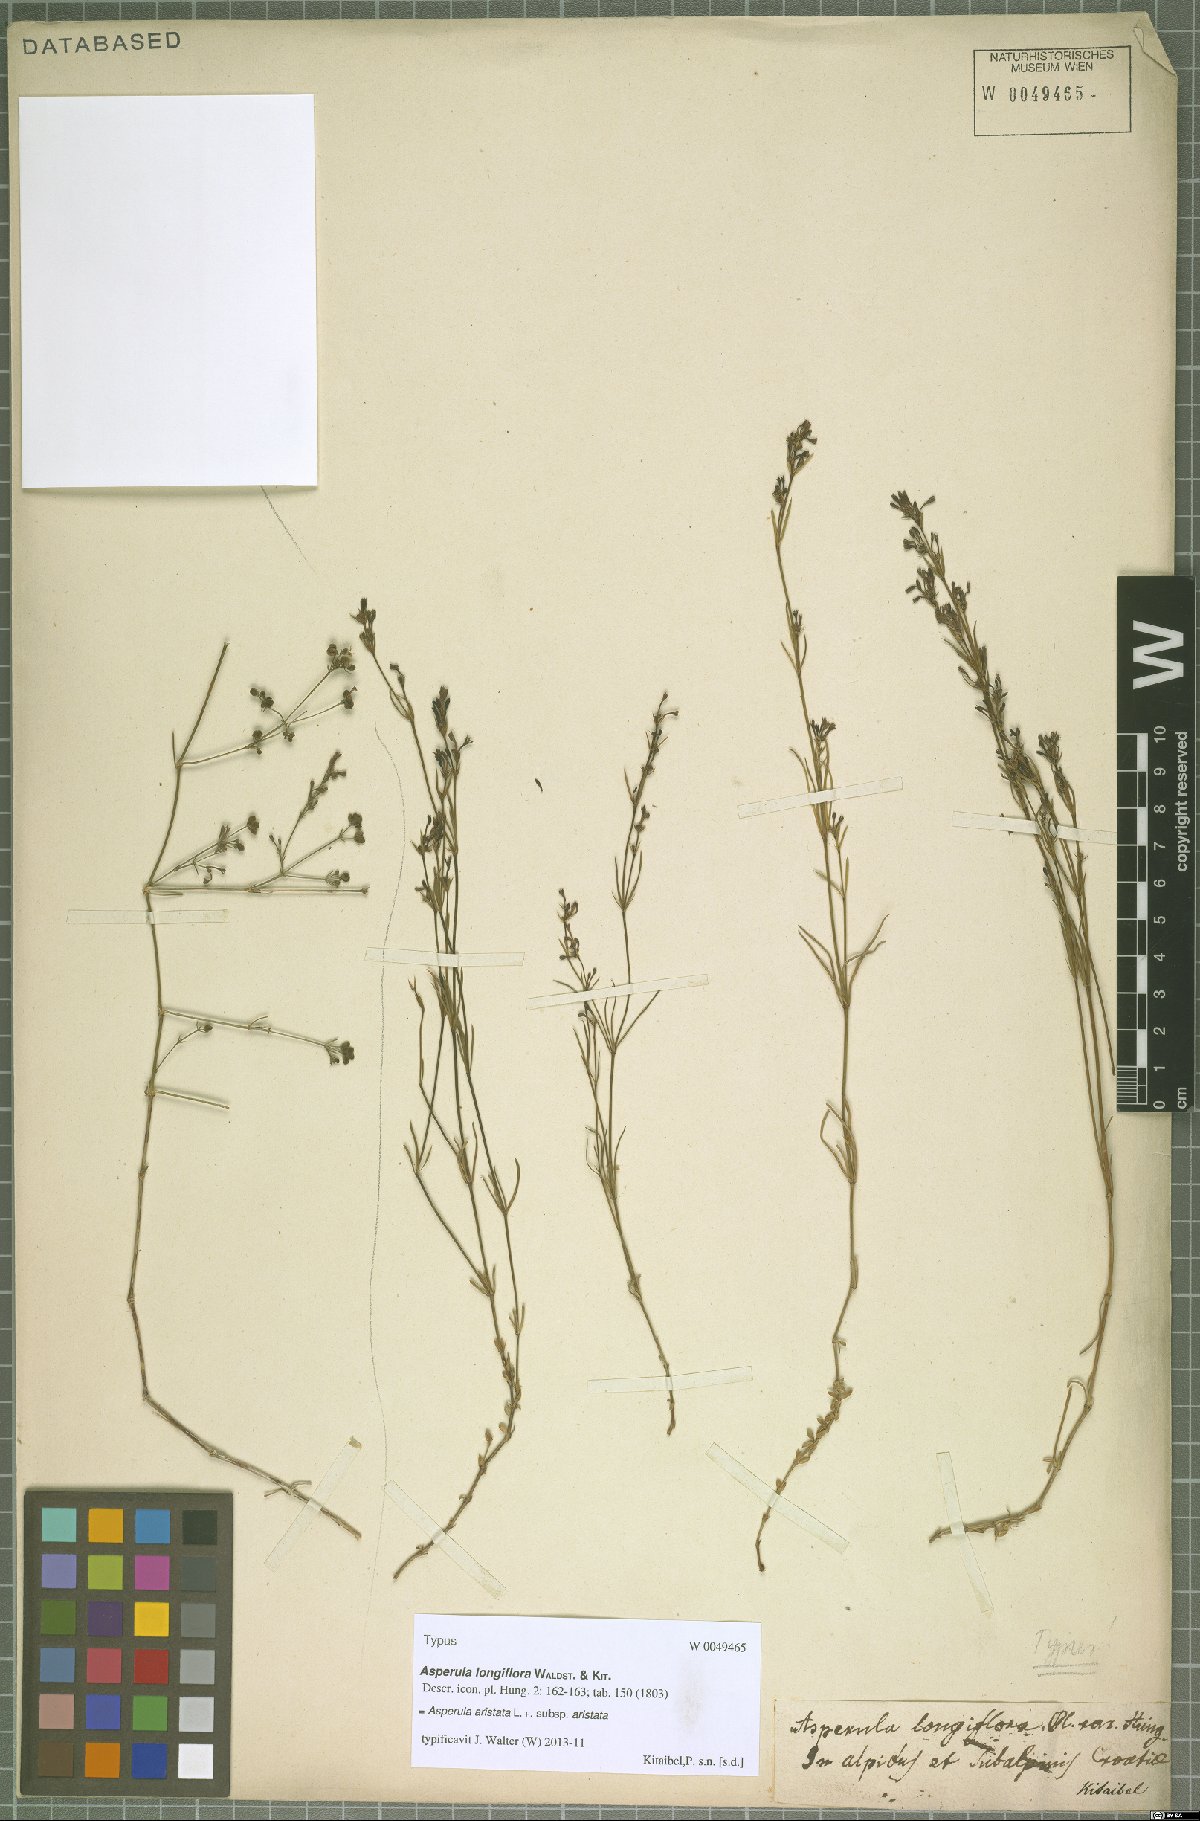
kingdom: Plantae
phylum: Tracheophyta
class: Magnoliopsida
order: Gentianales
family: Rubiaceae
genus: Cynanchica
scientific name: Cynanchica aristata
